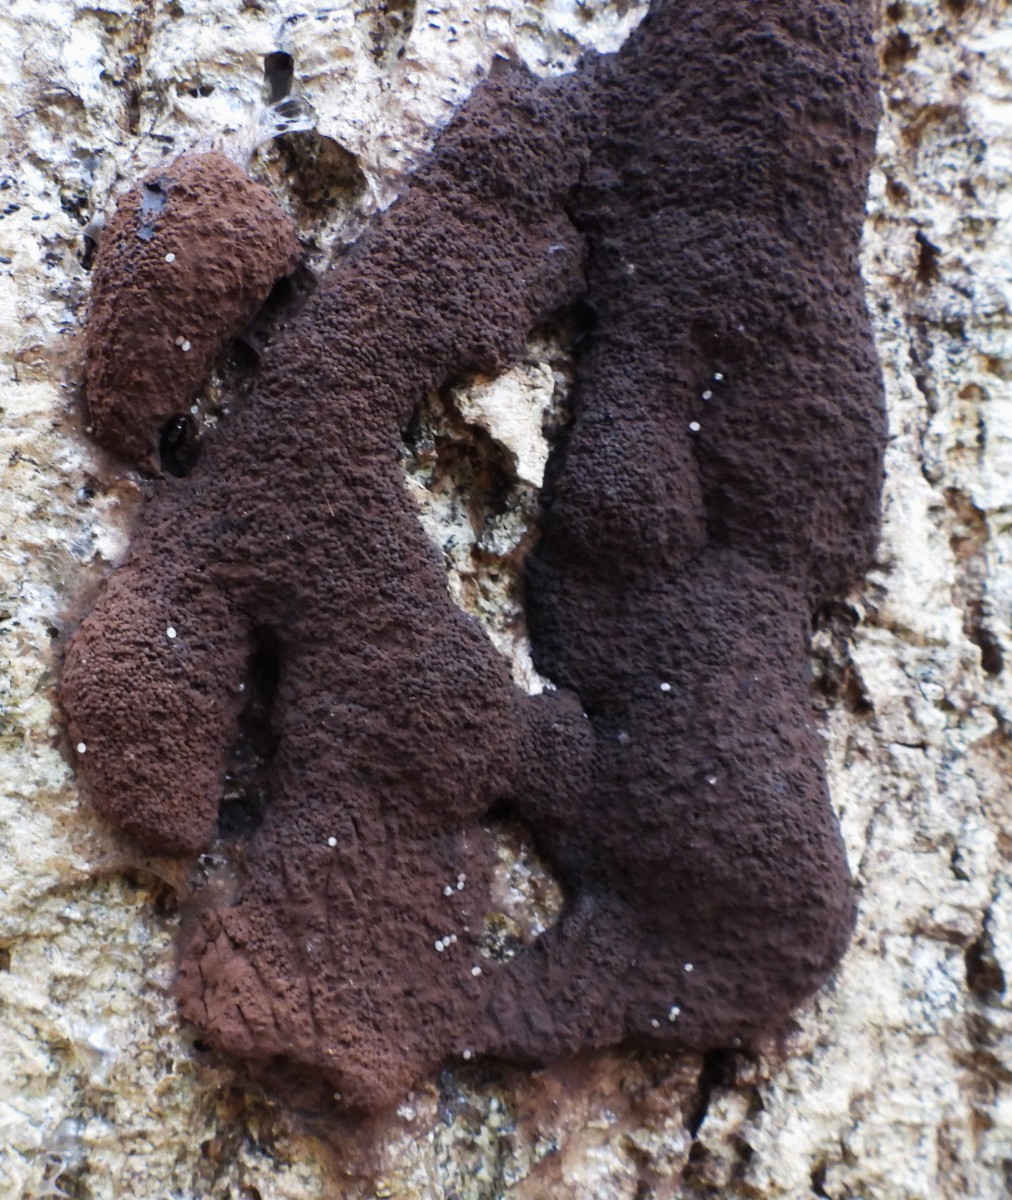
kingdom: Protozoa
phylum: Mycetozoa
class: Myxomycetes
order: Stemonitidales
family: Stemonitidaceae
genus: Brefeldia
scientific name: Brefeldia maxima
